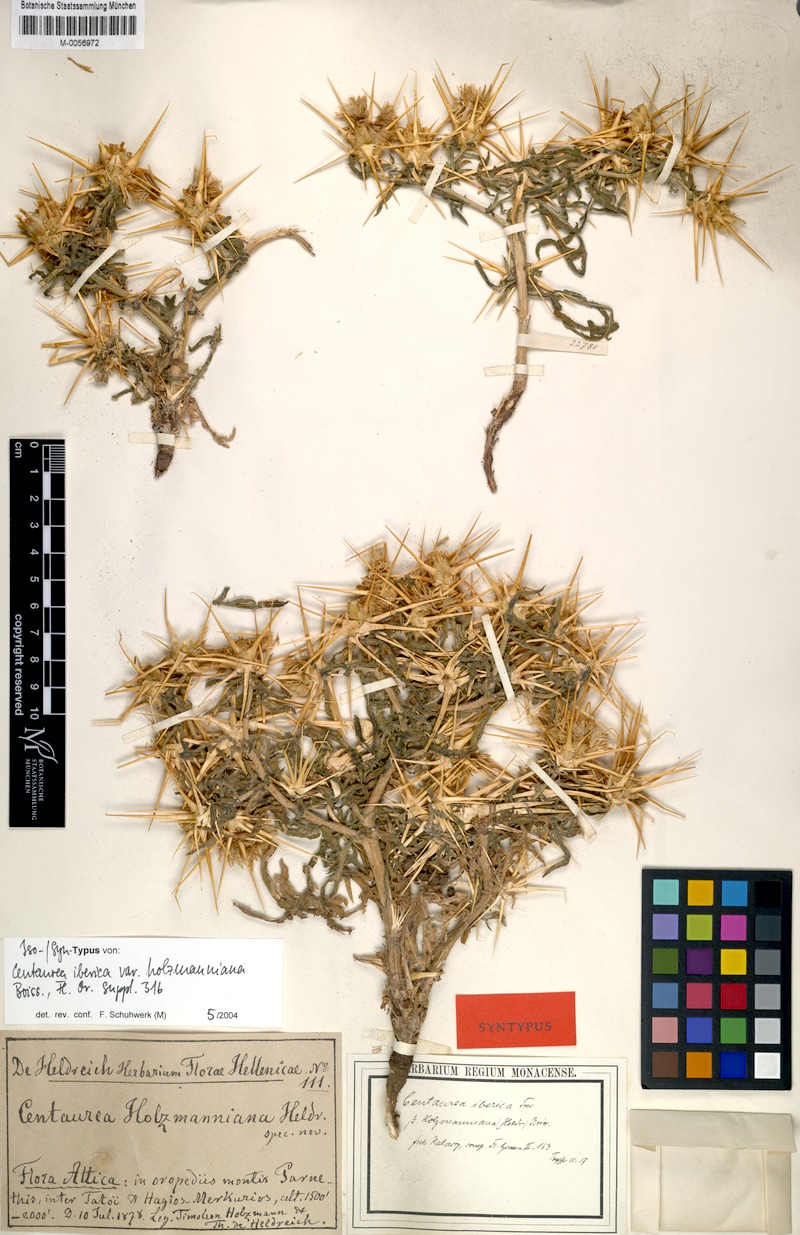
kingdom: Plantae
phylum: Tracheophyta
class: Magnoliopsida
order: Asterales
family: Asteraceae
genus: Centaurea
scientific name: Centaurea iberica
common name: Iberian knapweed
